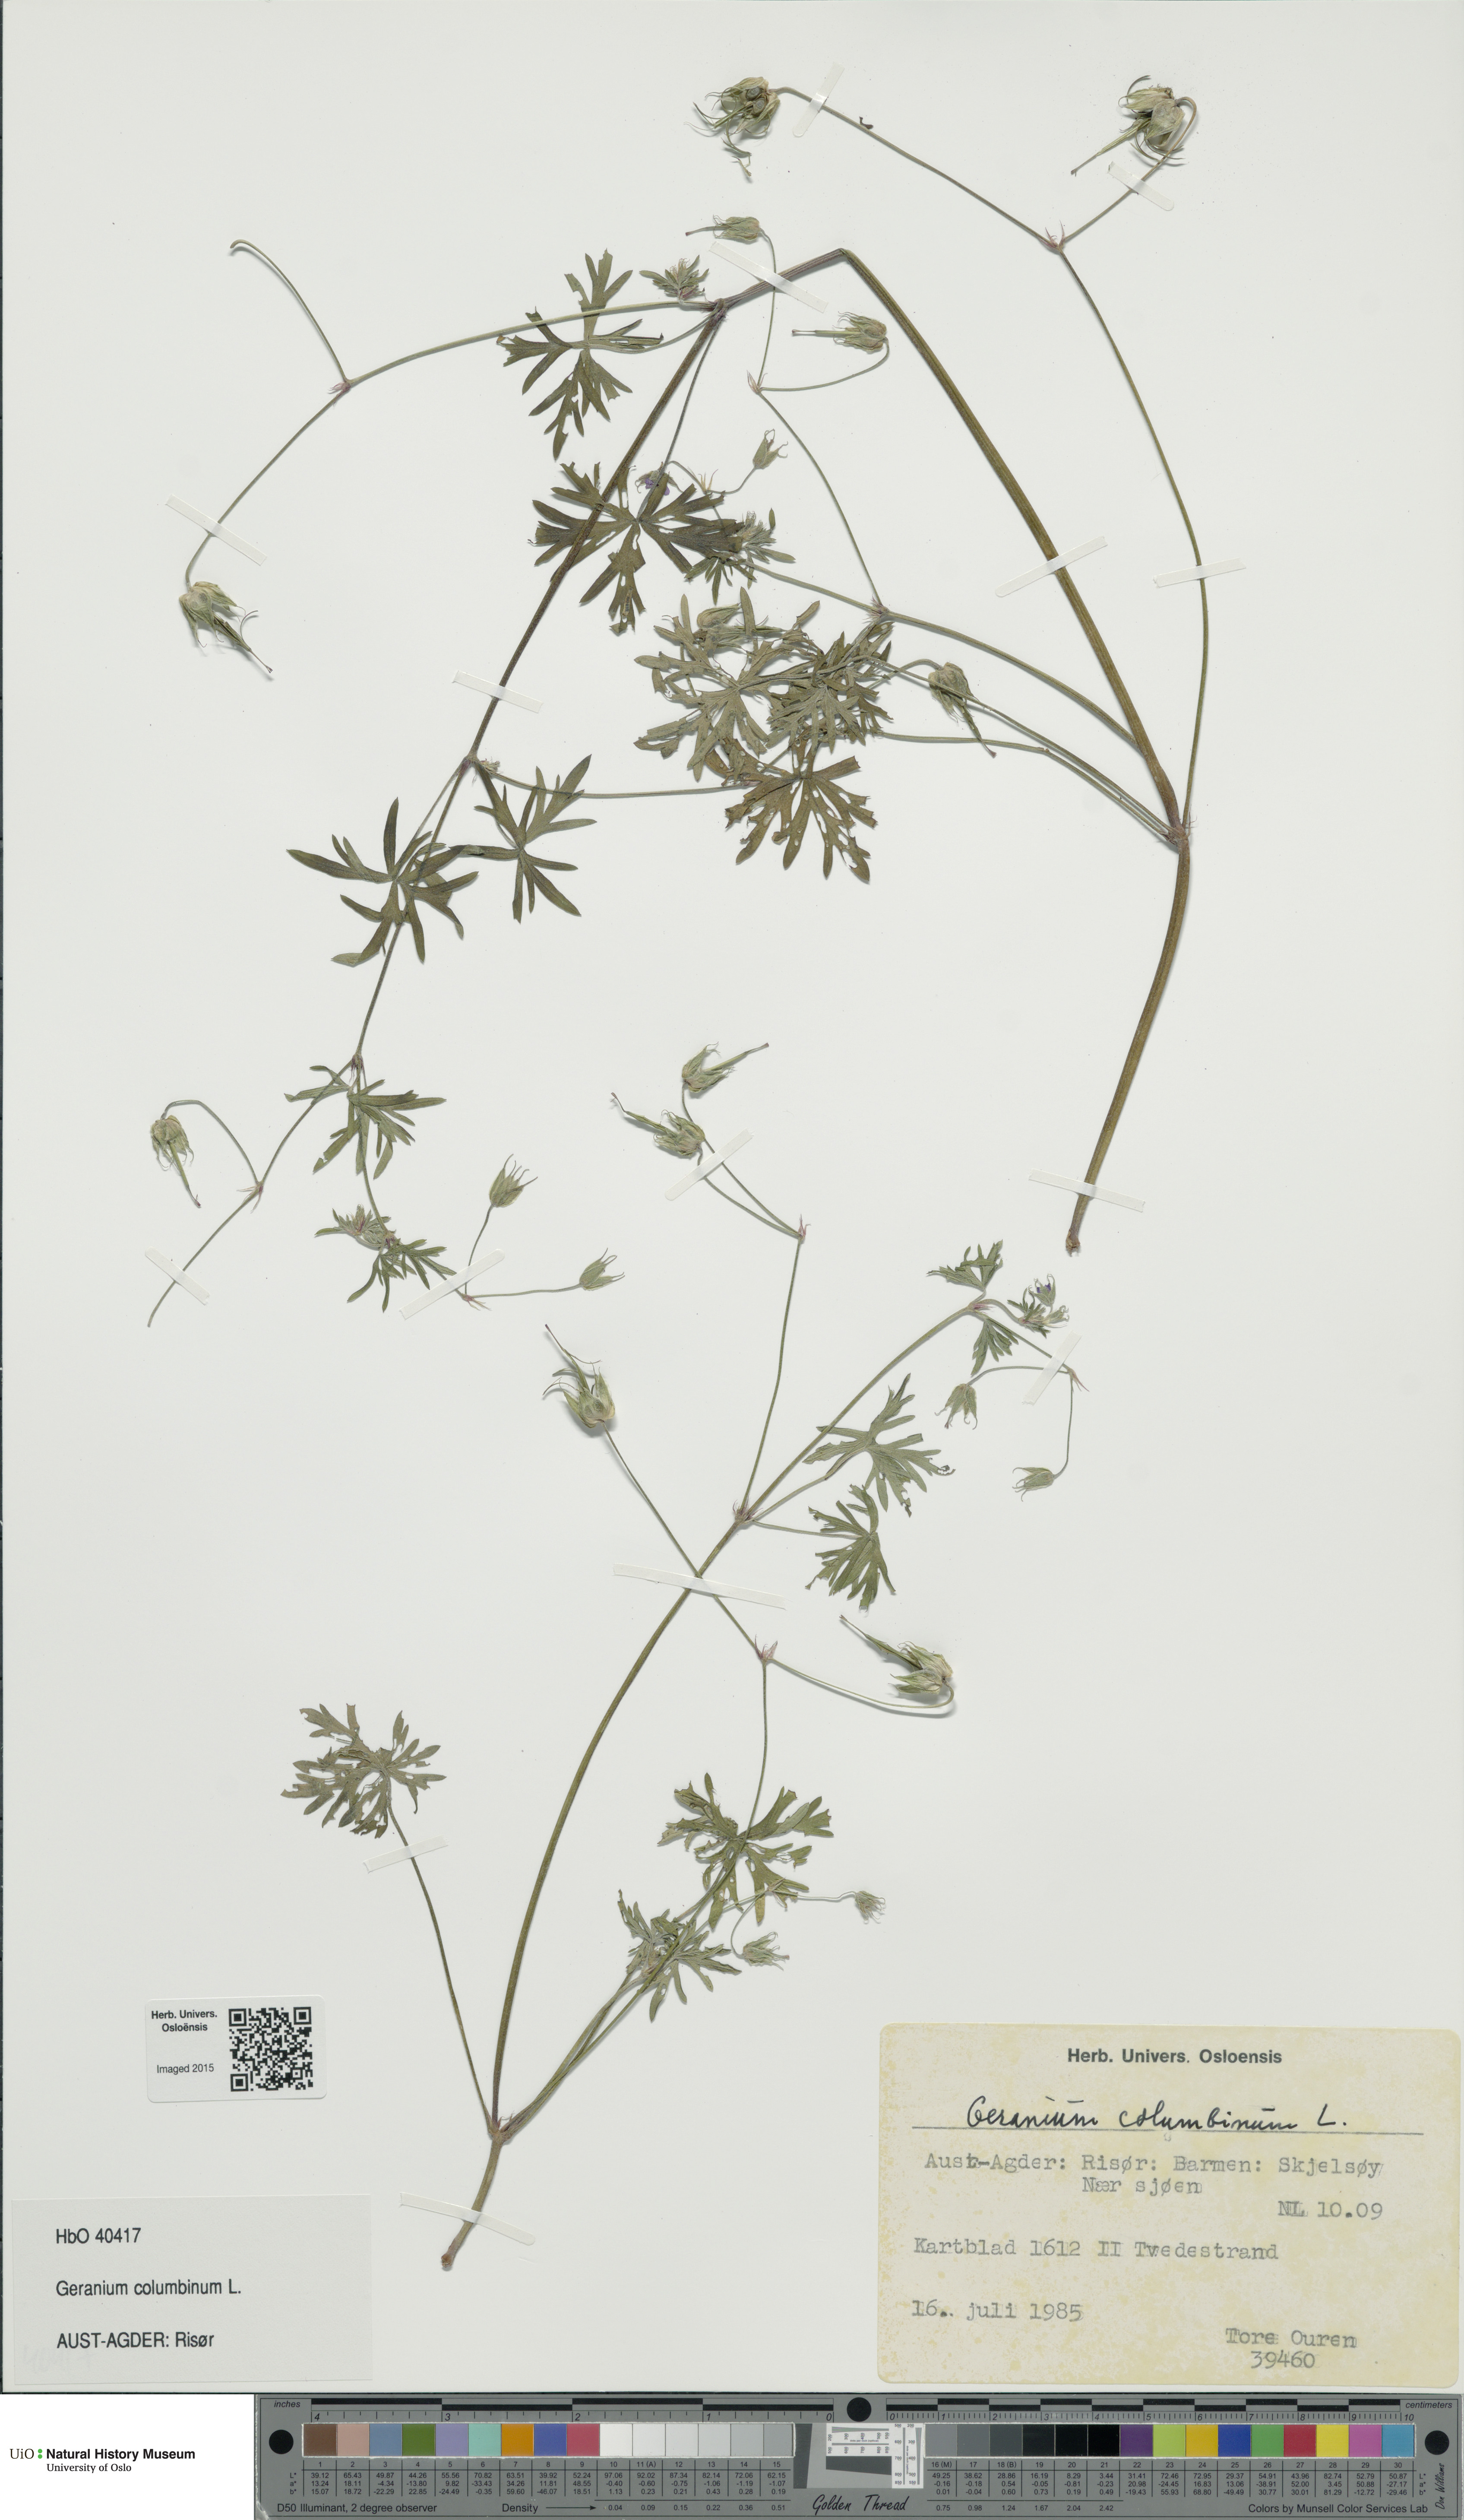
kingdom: Plantae
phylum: Tracheophyta
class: Magnoliopsida
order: Geraniales
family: Geraniaceae
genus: Geranium
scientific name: Geranium columbinum
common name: Long-stalked crane's-bill
